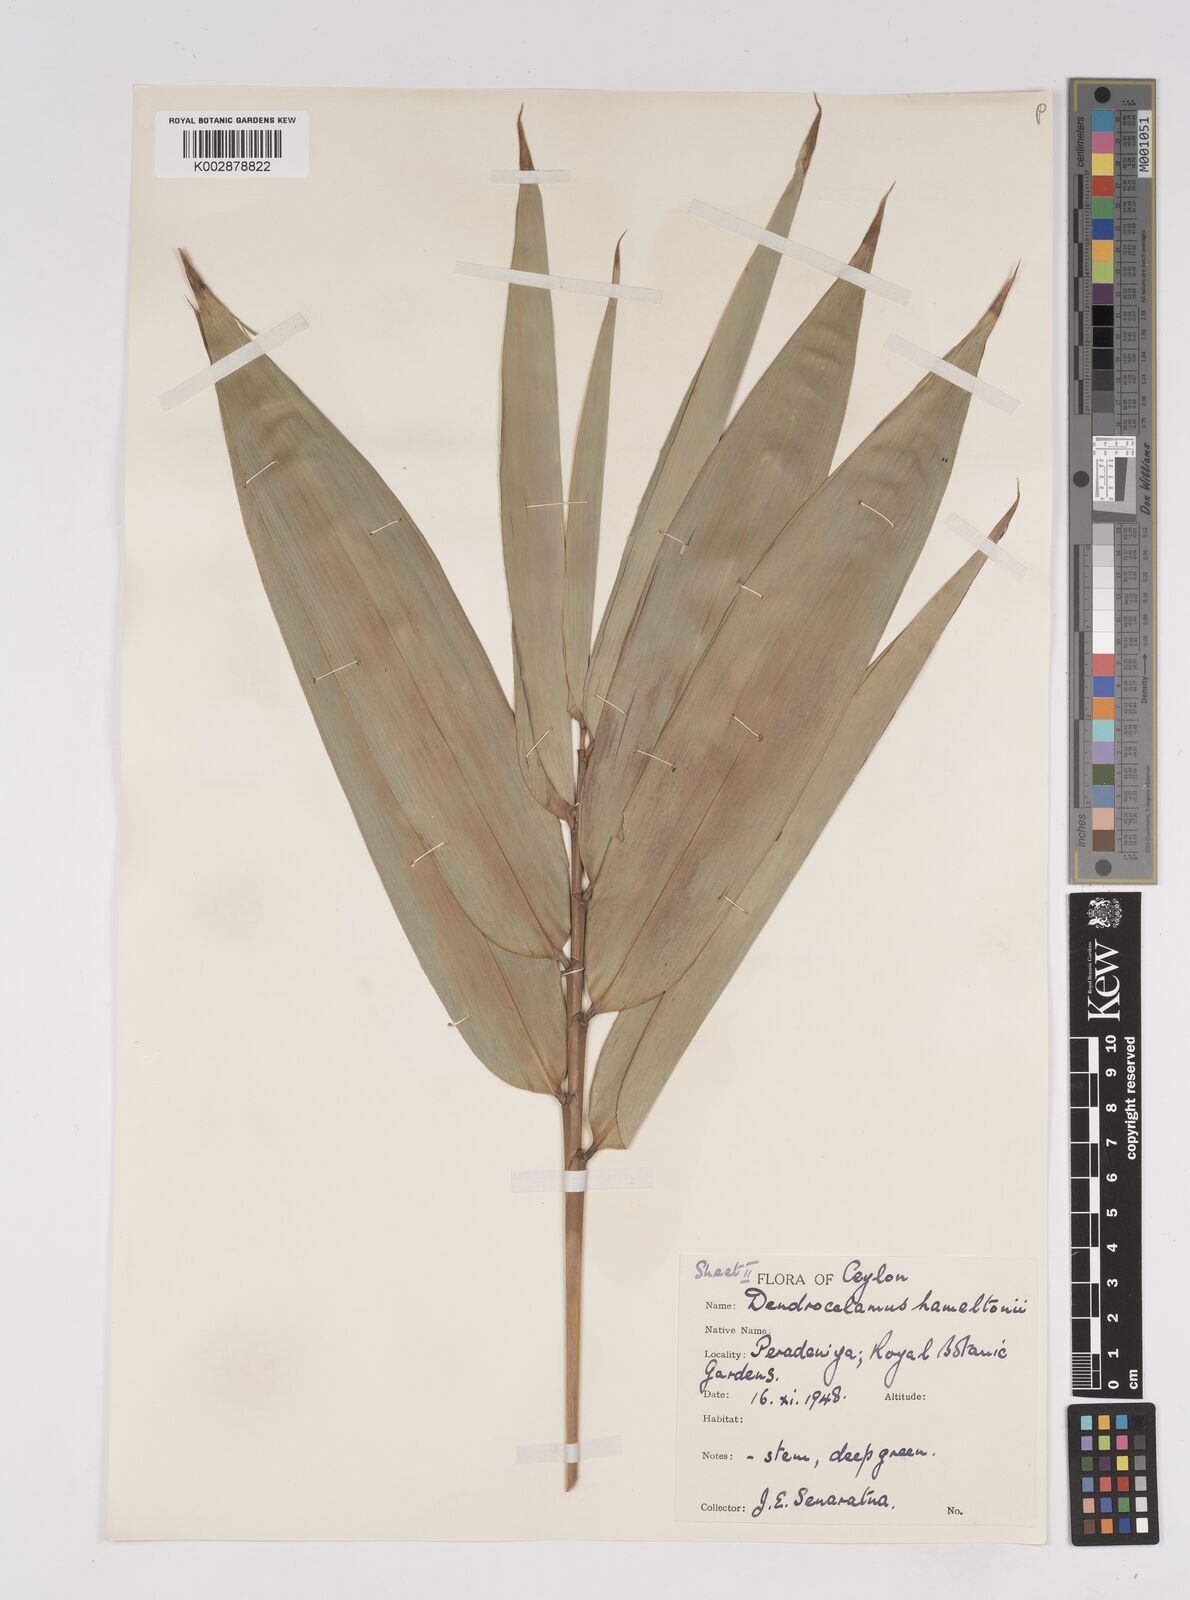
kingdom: Plantae
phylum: Tracheophyta
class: Liliopsida
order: Poales
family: Poaceae
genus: Dendrocalamus
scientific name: Dendrocalamus hamiltonii
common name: Tama bamboo
